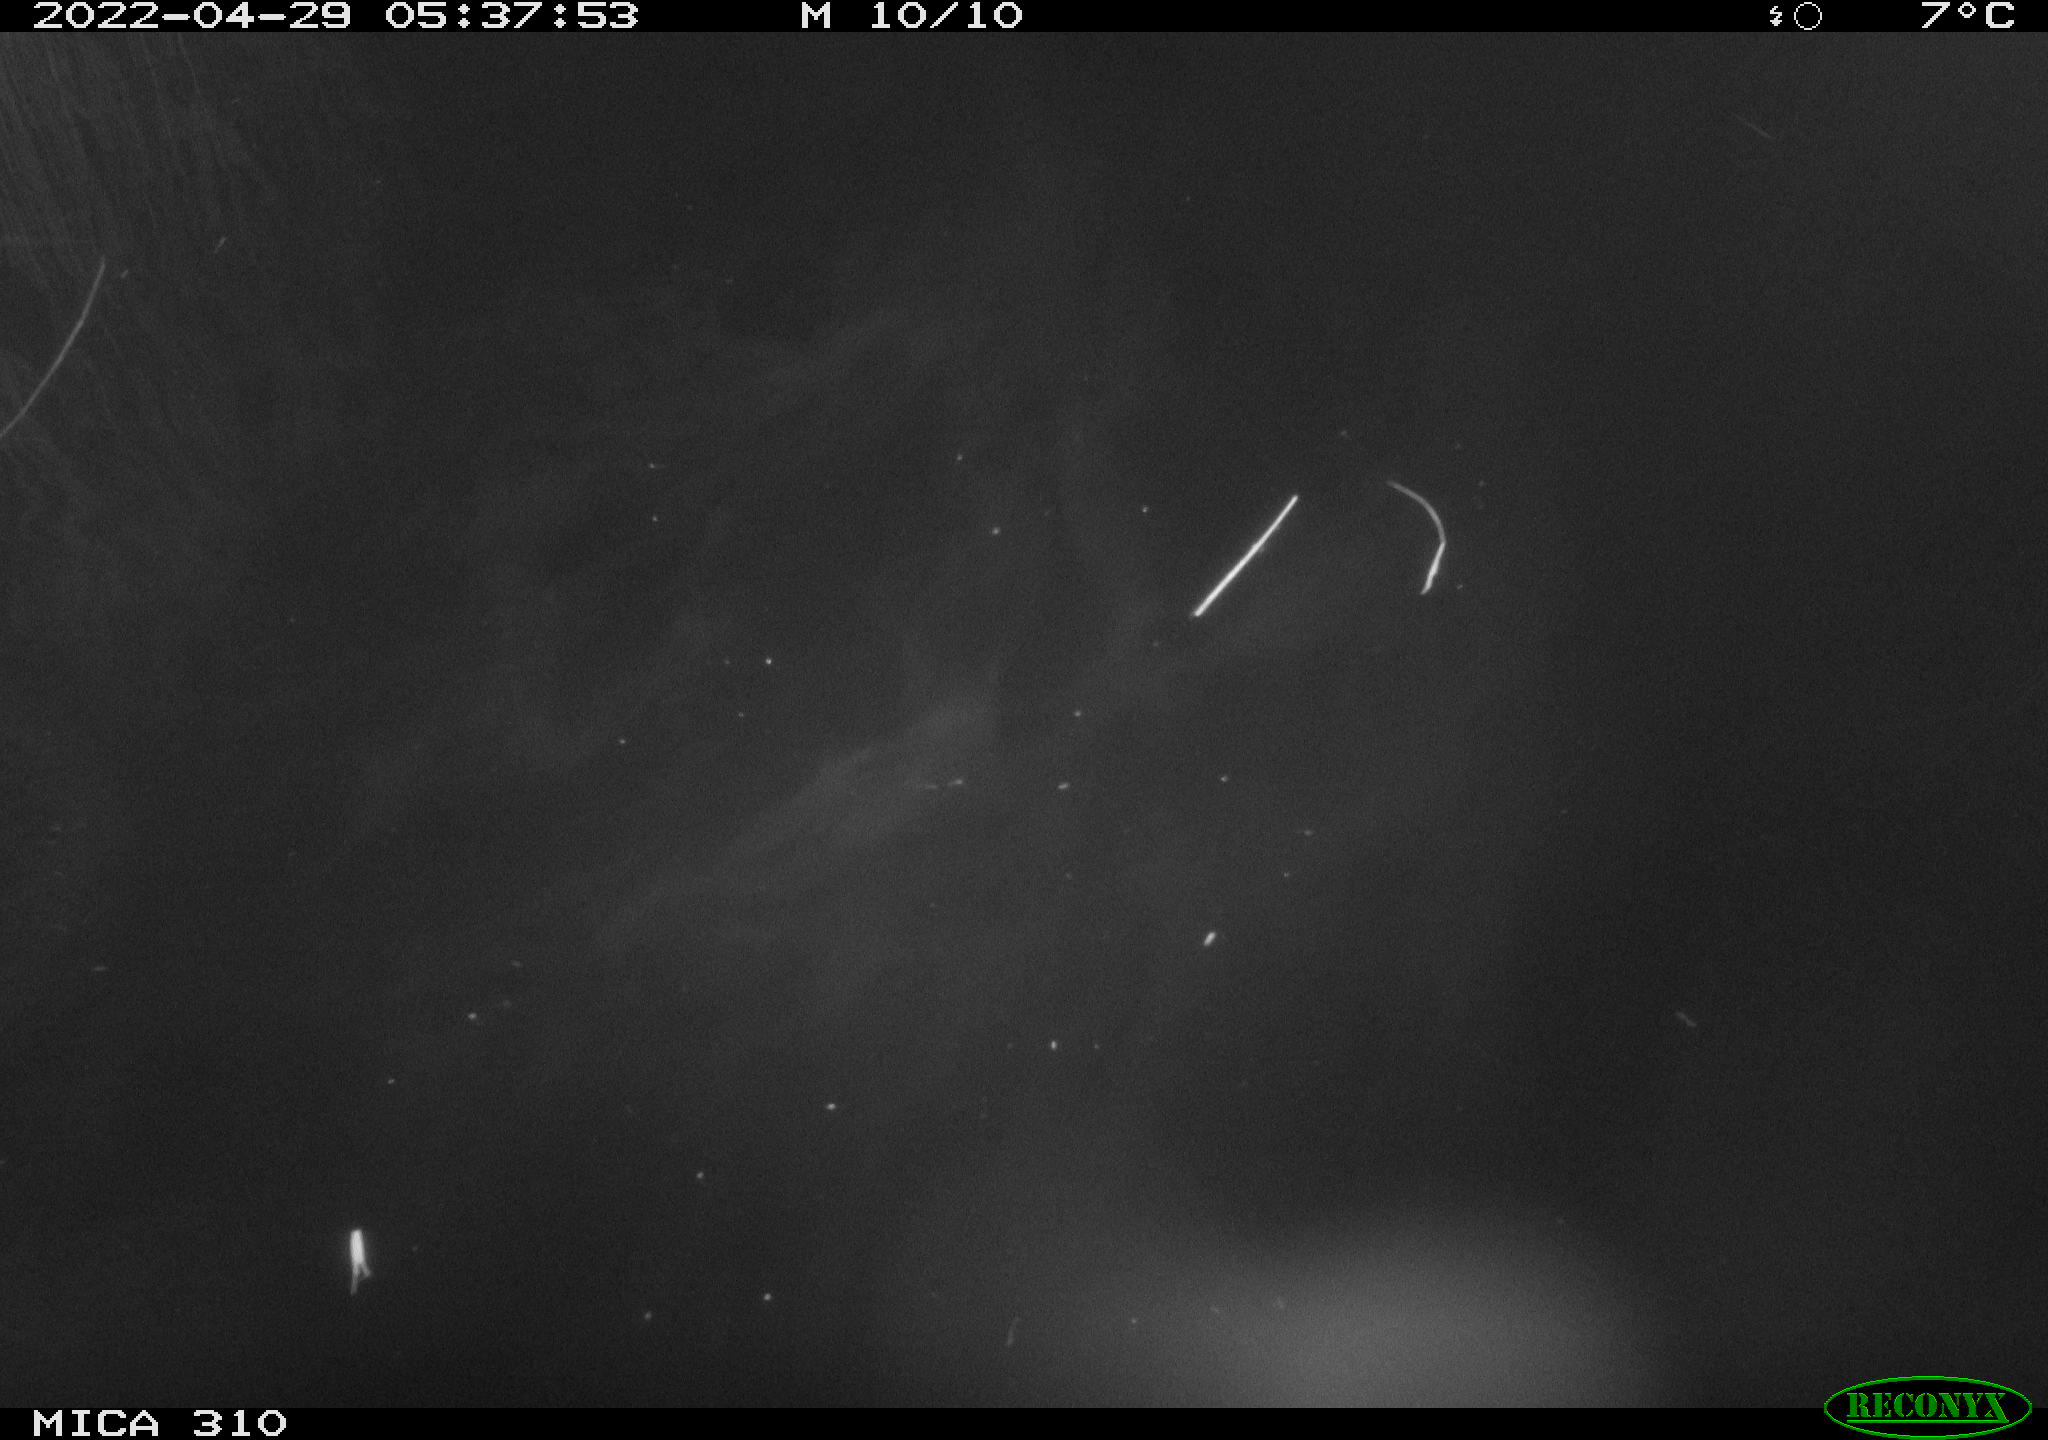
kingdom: Animalia
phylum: Chordata
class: Aves
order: Gruiformes
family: Rallidae
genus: Fulica
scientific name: Fulica atra
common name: Eurasian coot
